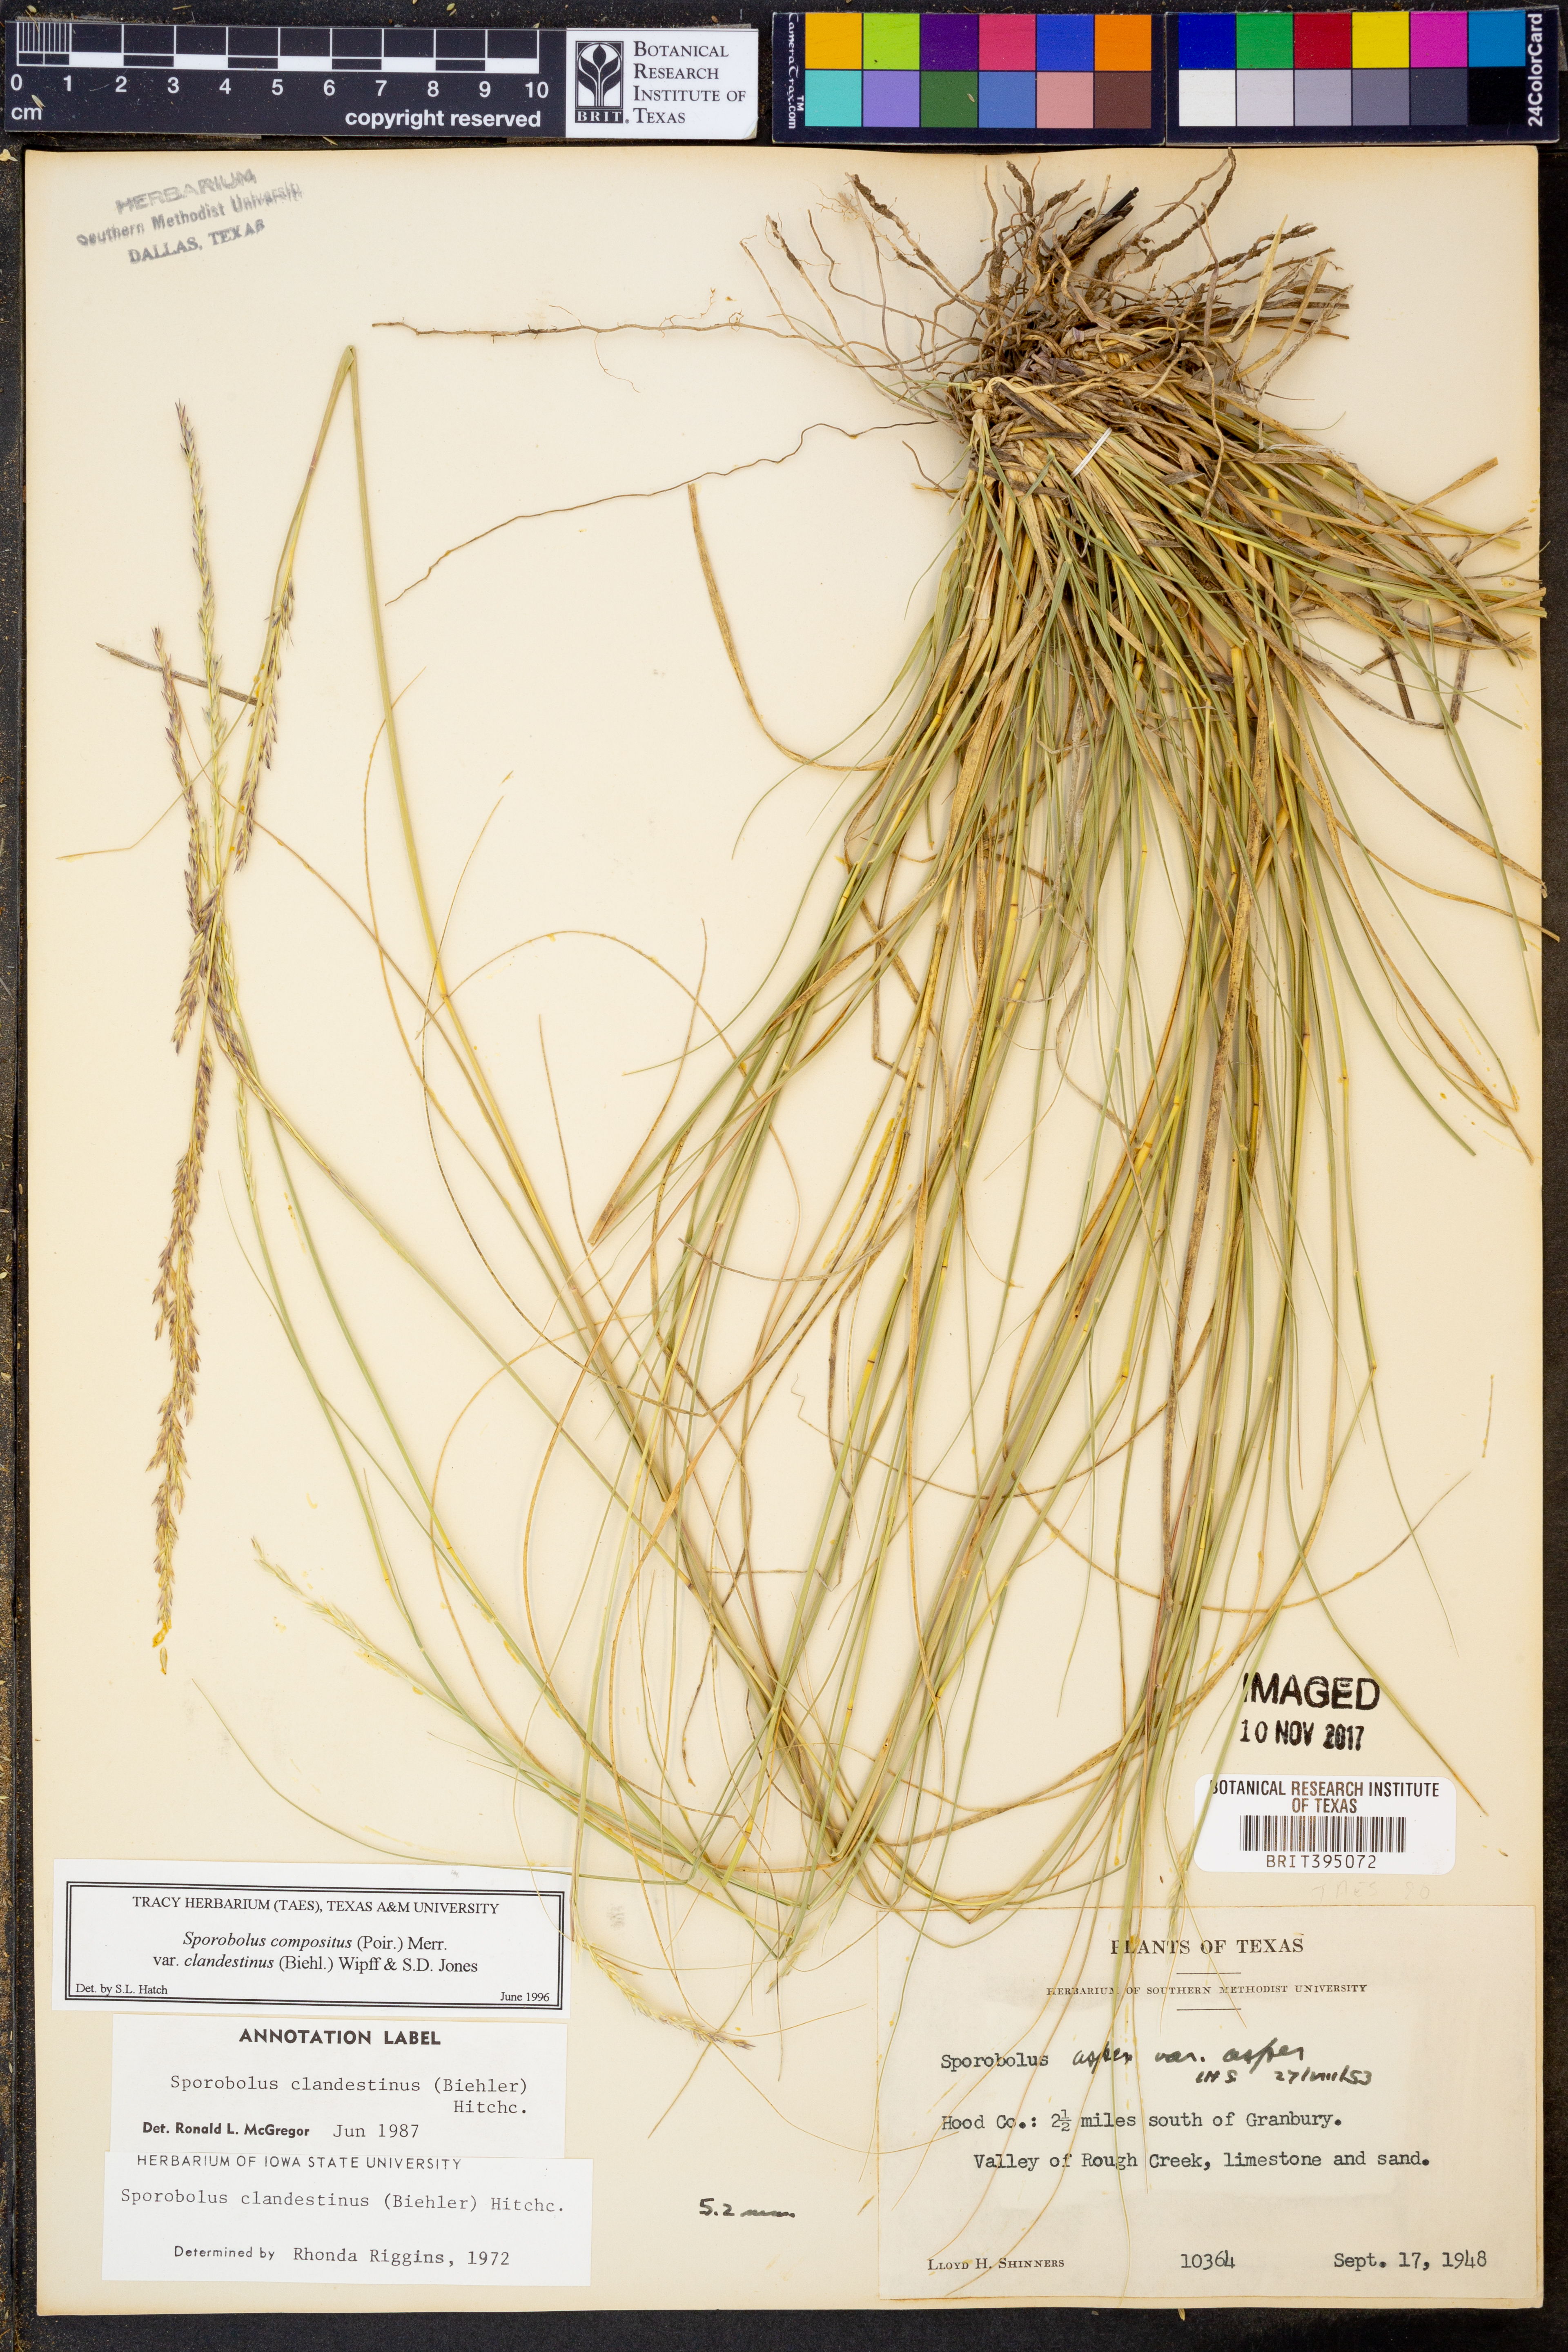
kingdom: Plantae
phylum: Tracheophyta
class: Liliopsida
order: Poales
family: Poaceae
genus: Sporobolus
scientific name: Sporobolus clandestinus
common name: Hidden dropseed
